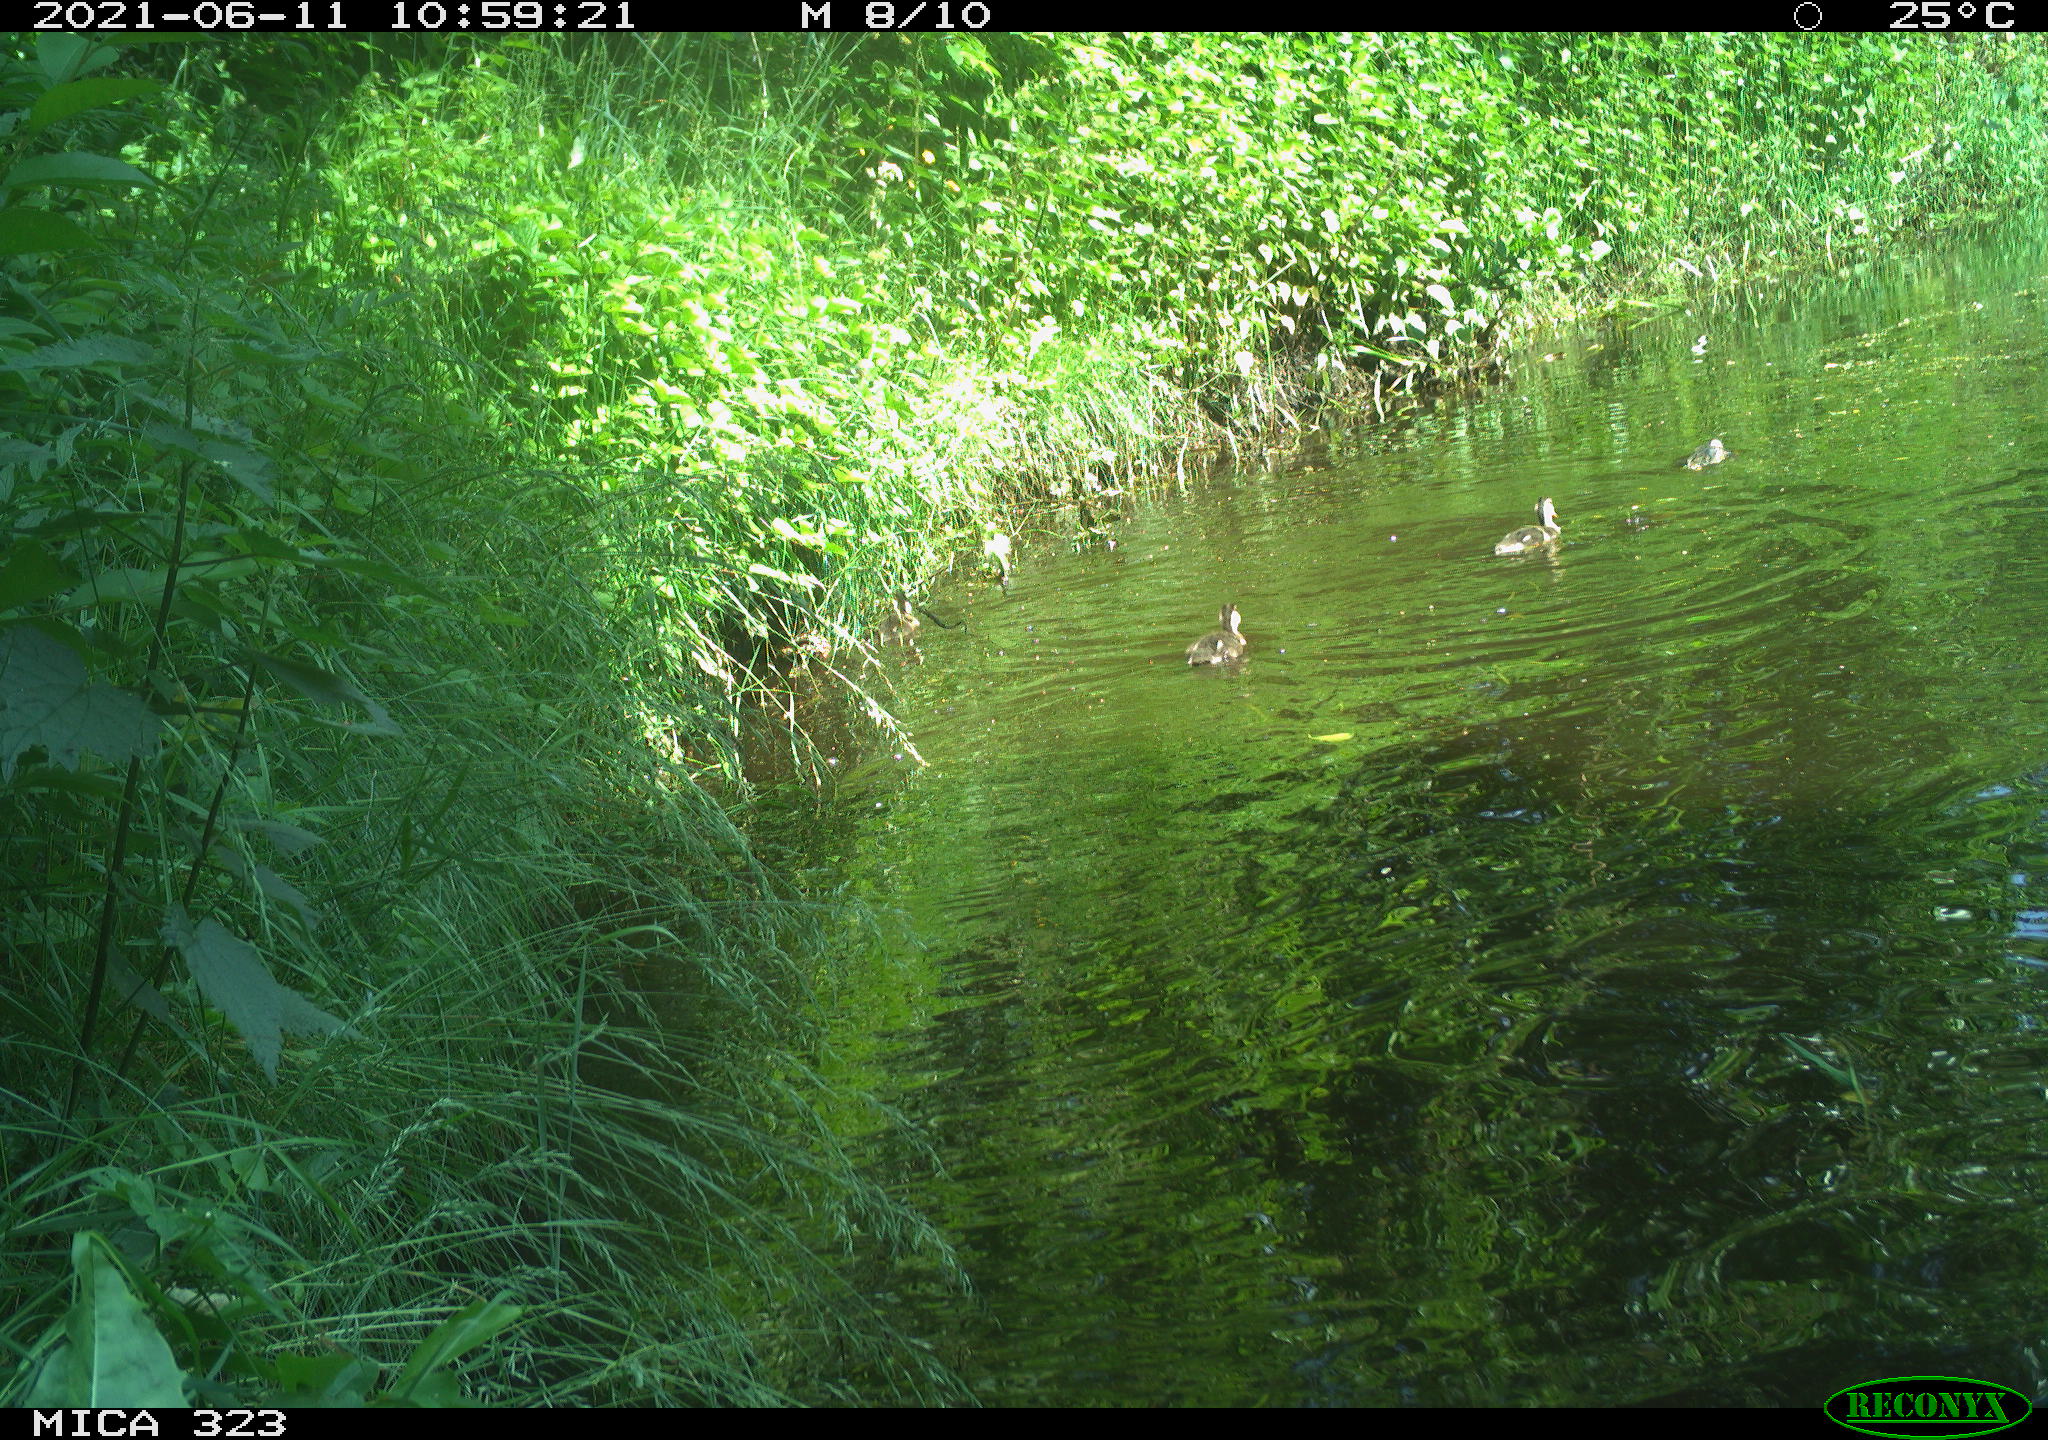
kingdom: Animalia
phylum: Chordata
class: Aves
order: Anseriformes
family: Anatidae
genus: Anas
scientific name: Anas
